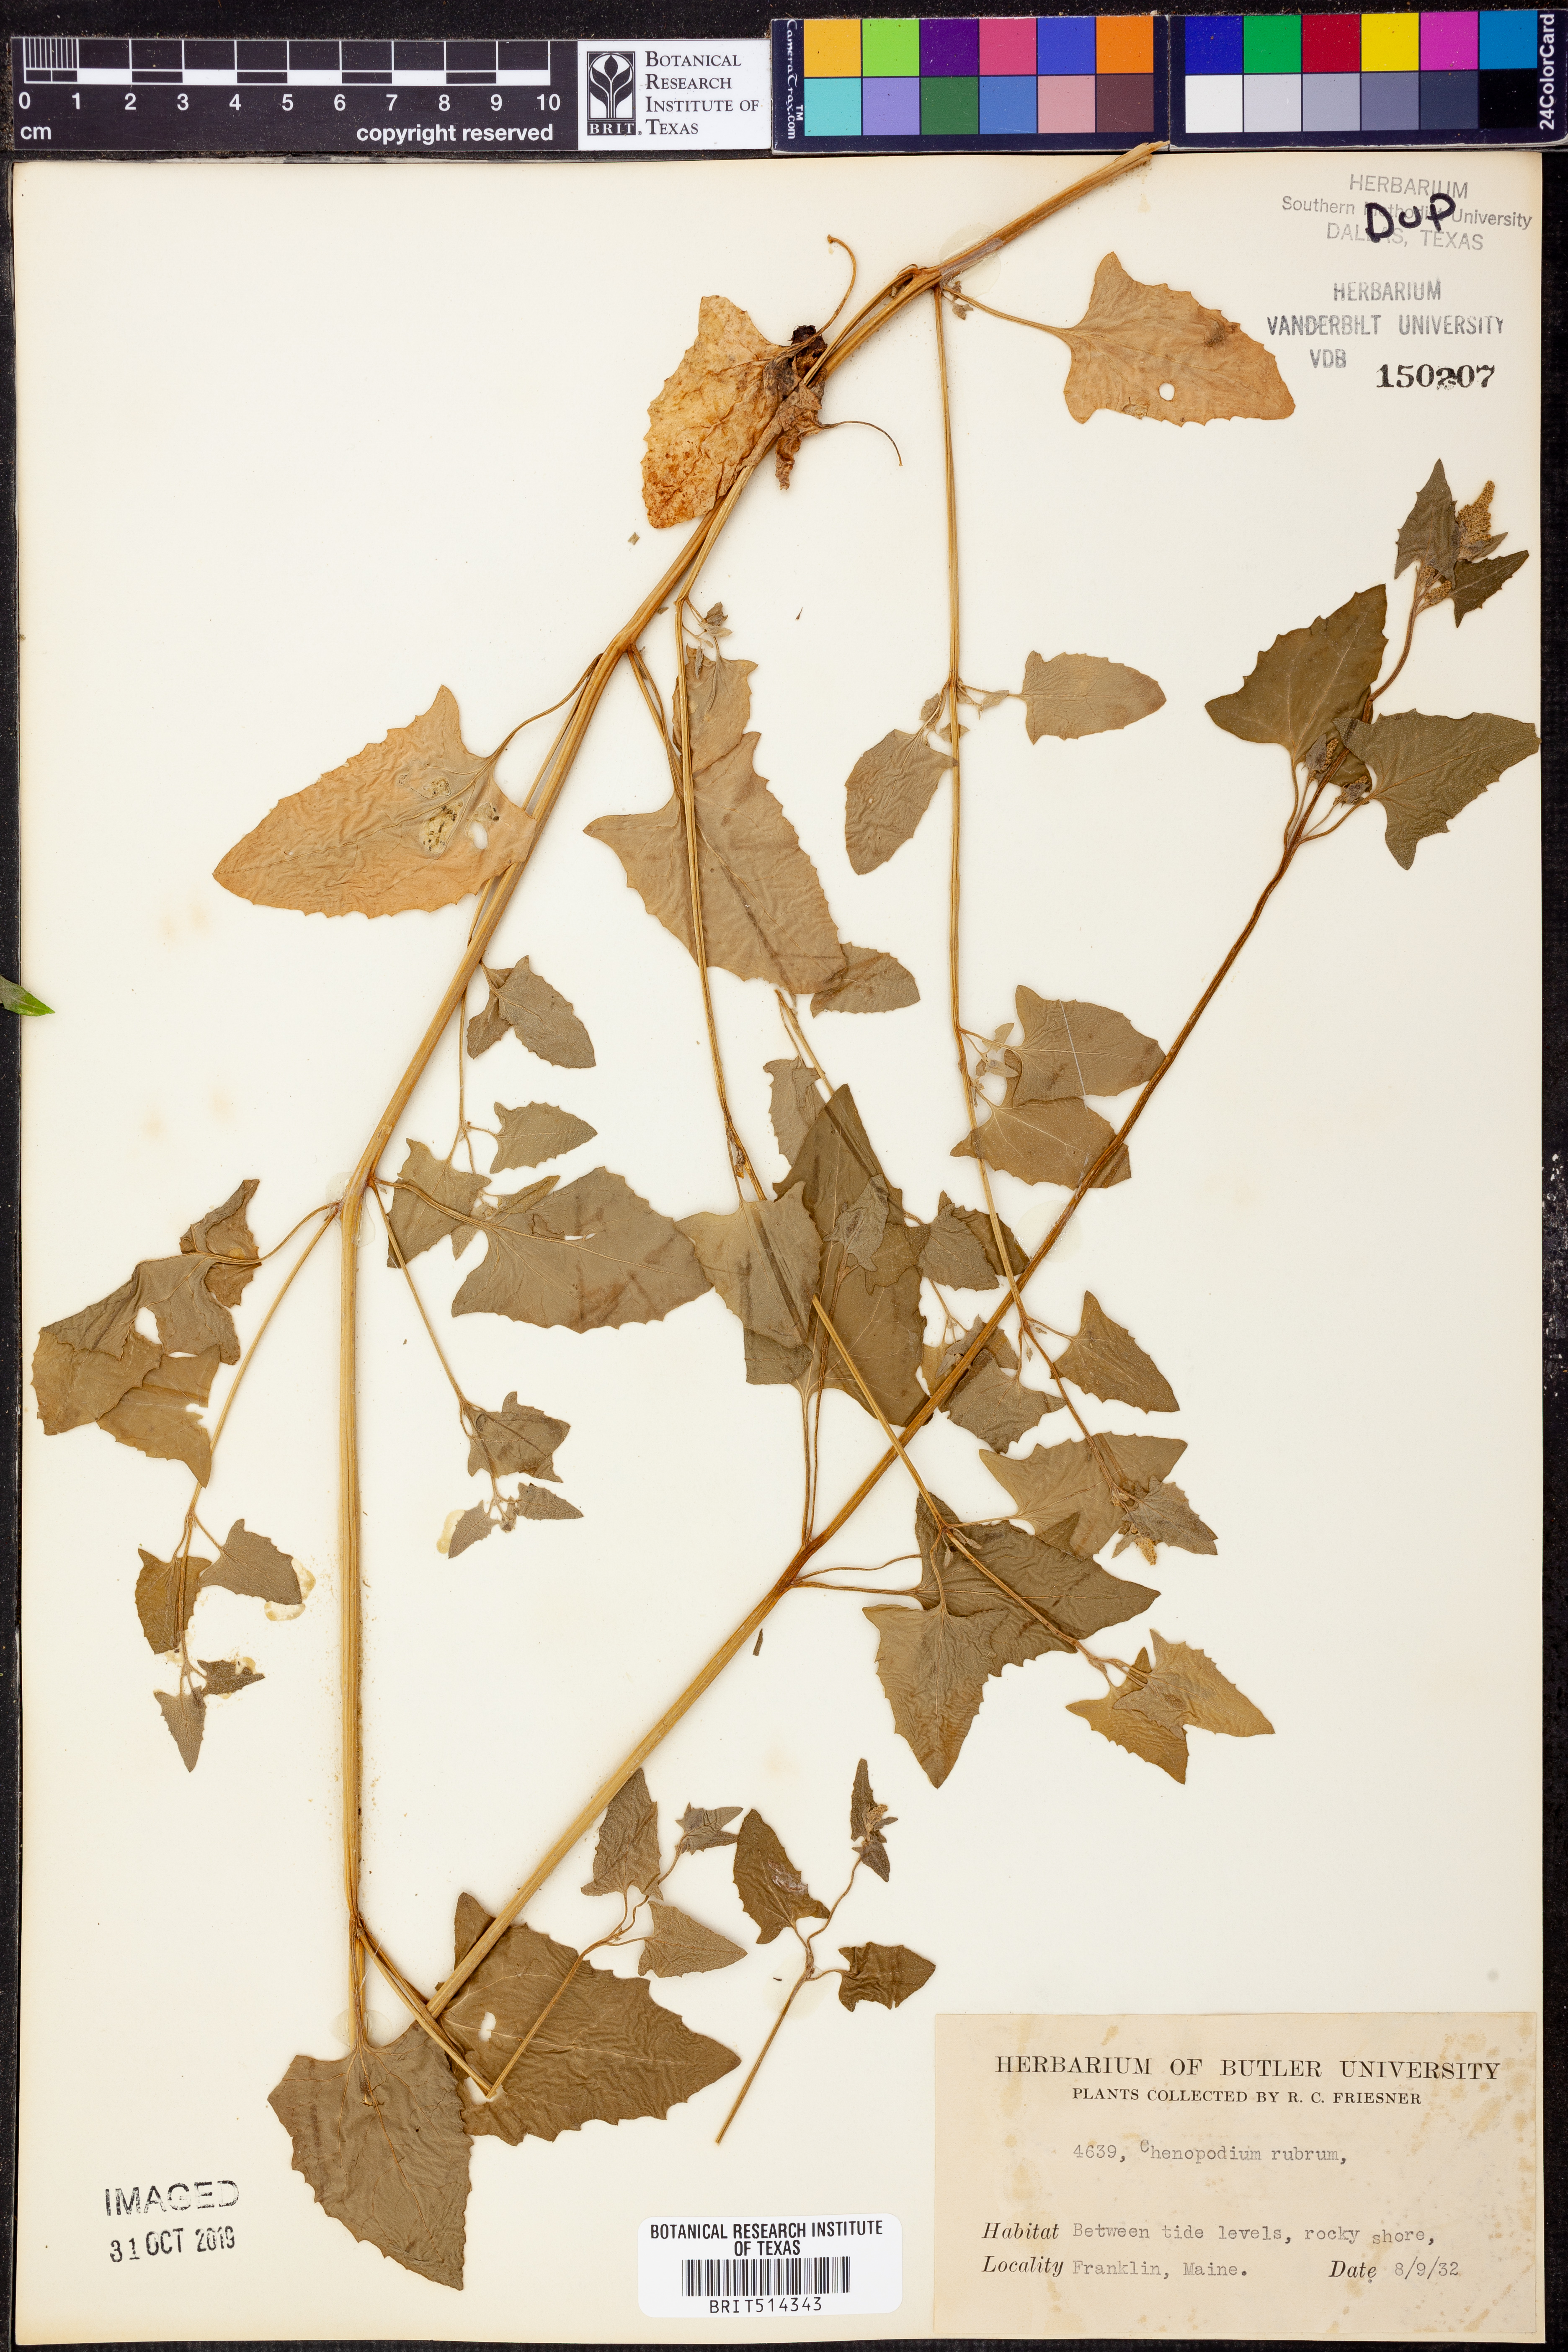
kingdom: Plantae
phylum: Tracheophyta
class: Magnoliopsida
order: Caryophyllales
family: Amaranthaceae
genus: Oxybasis
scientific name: Oxybasis rubra
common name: Red goosefoot
